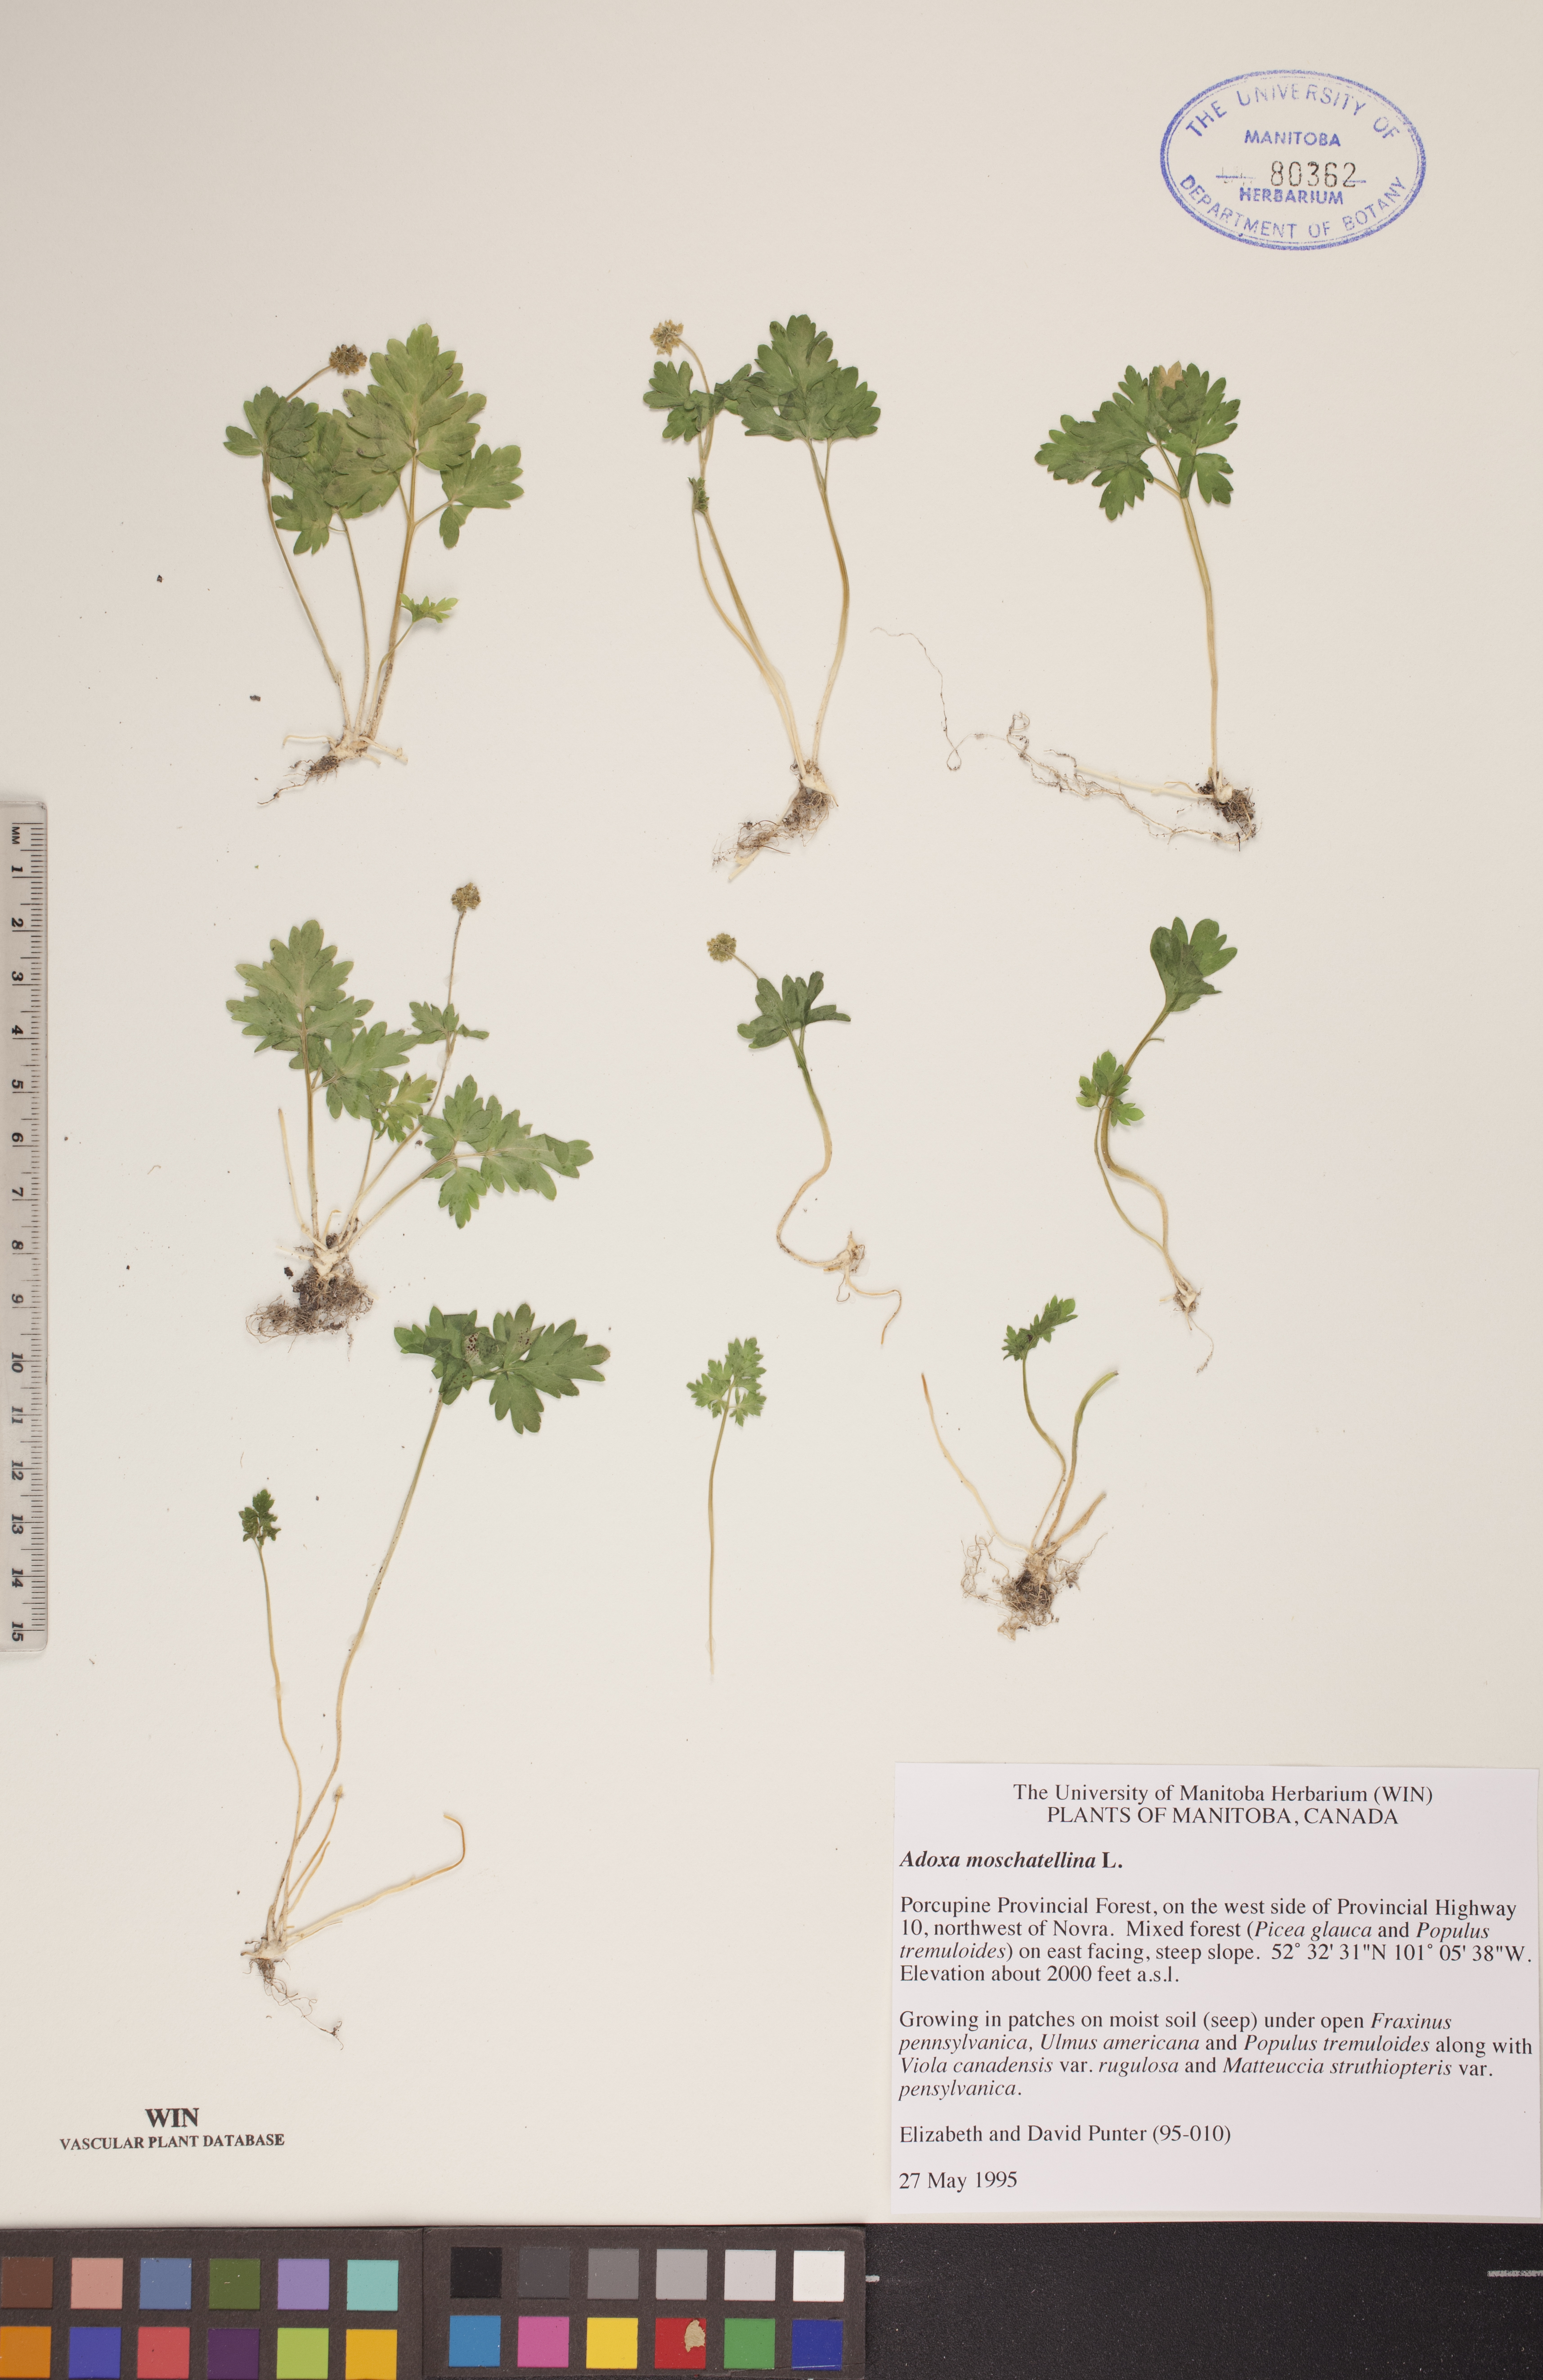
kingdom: Plantae
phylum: Tracheophyta
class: Magnoliopsida
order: Dipsacales
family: Viburnaceae
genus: Adoxa
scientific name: Adoxa moschatellina
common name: Moschatel
